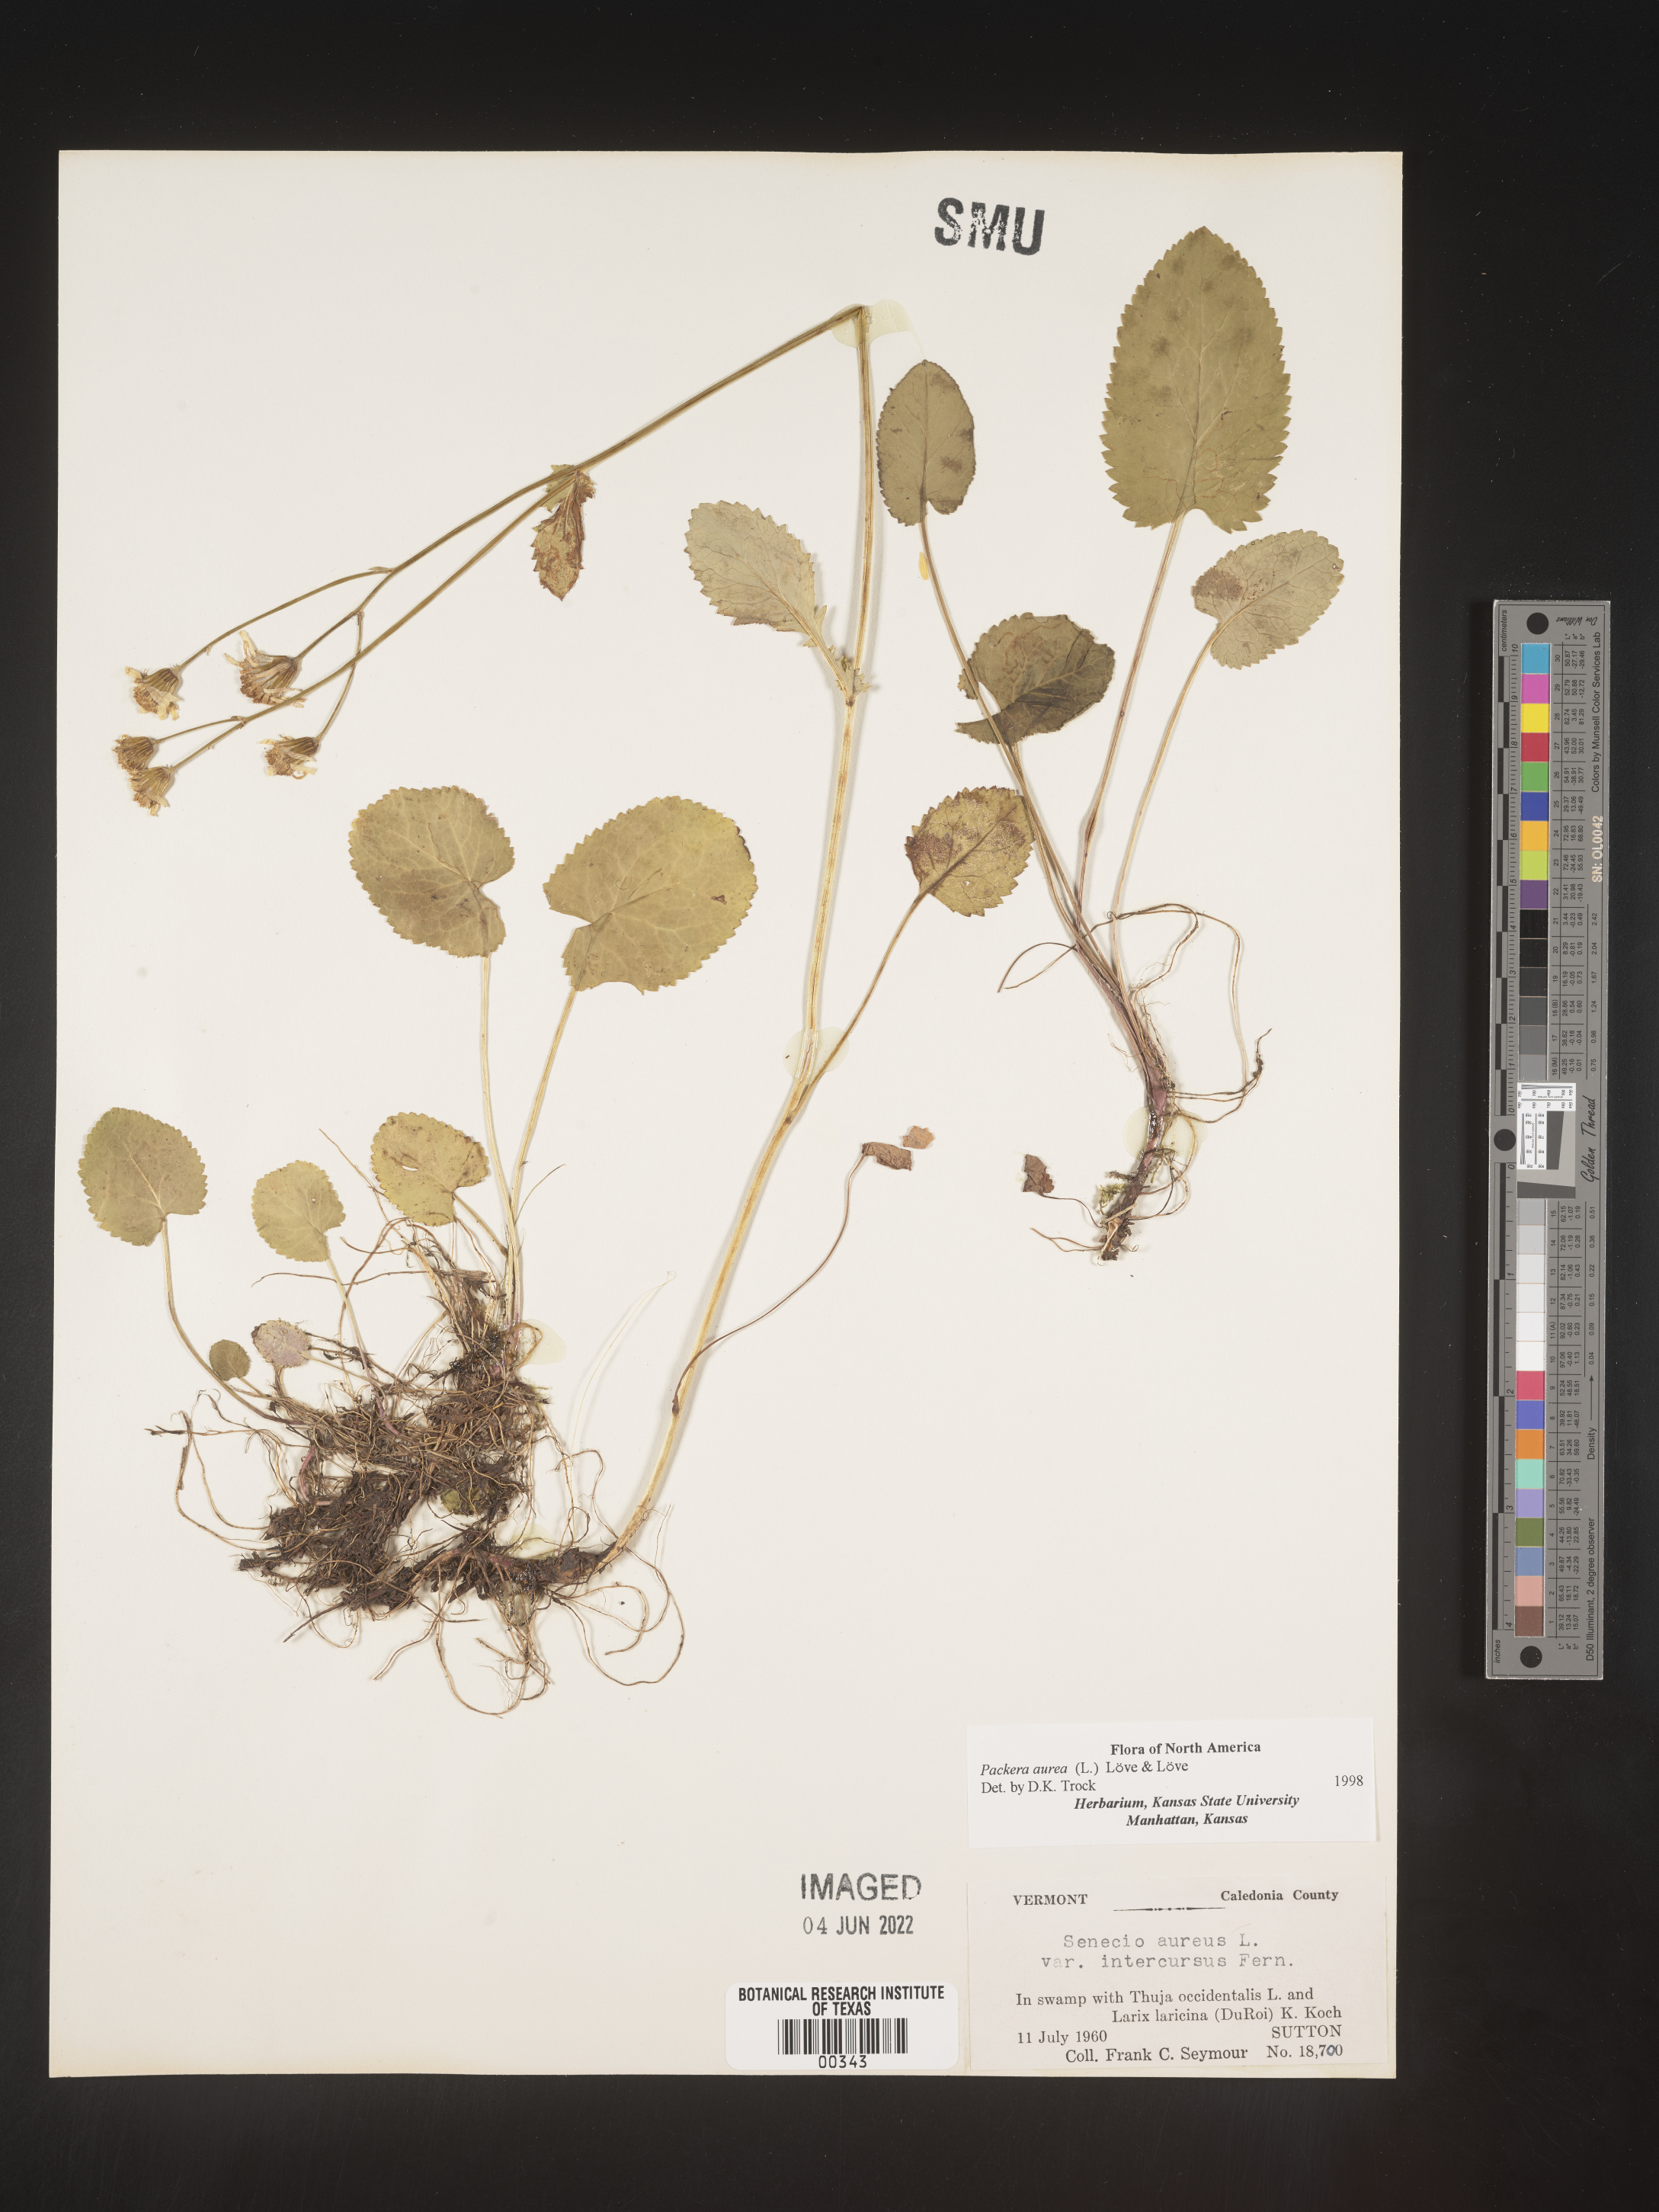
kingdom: Plantae
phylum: Tracheophyta
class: Magnoliopsida
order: Asterales
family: Asteraceae
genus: Packera
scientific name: Packera aurea
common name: Golden groundsel
